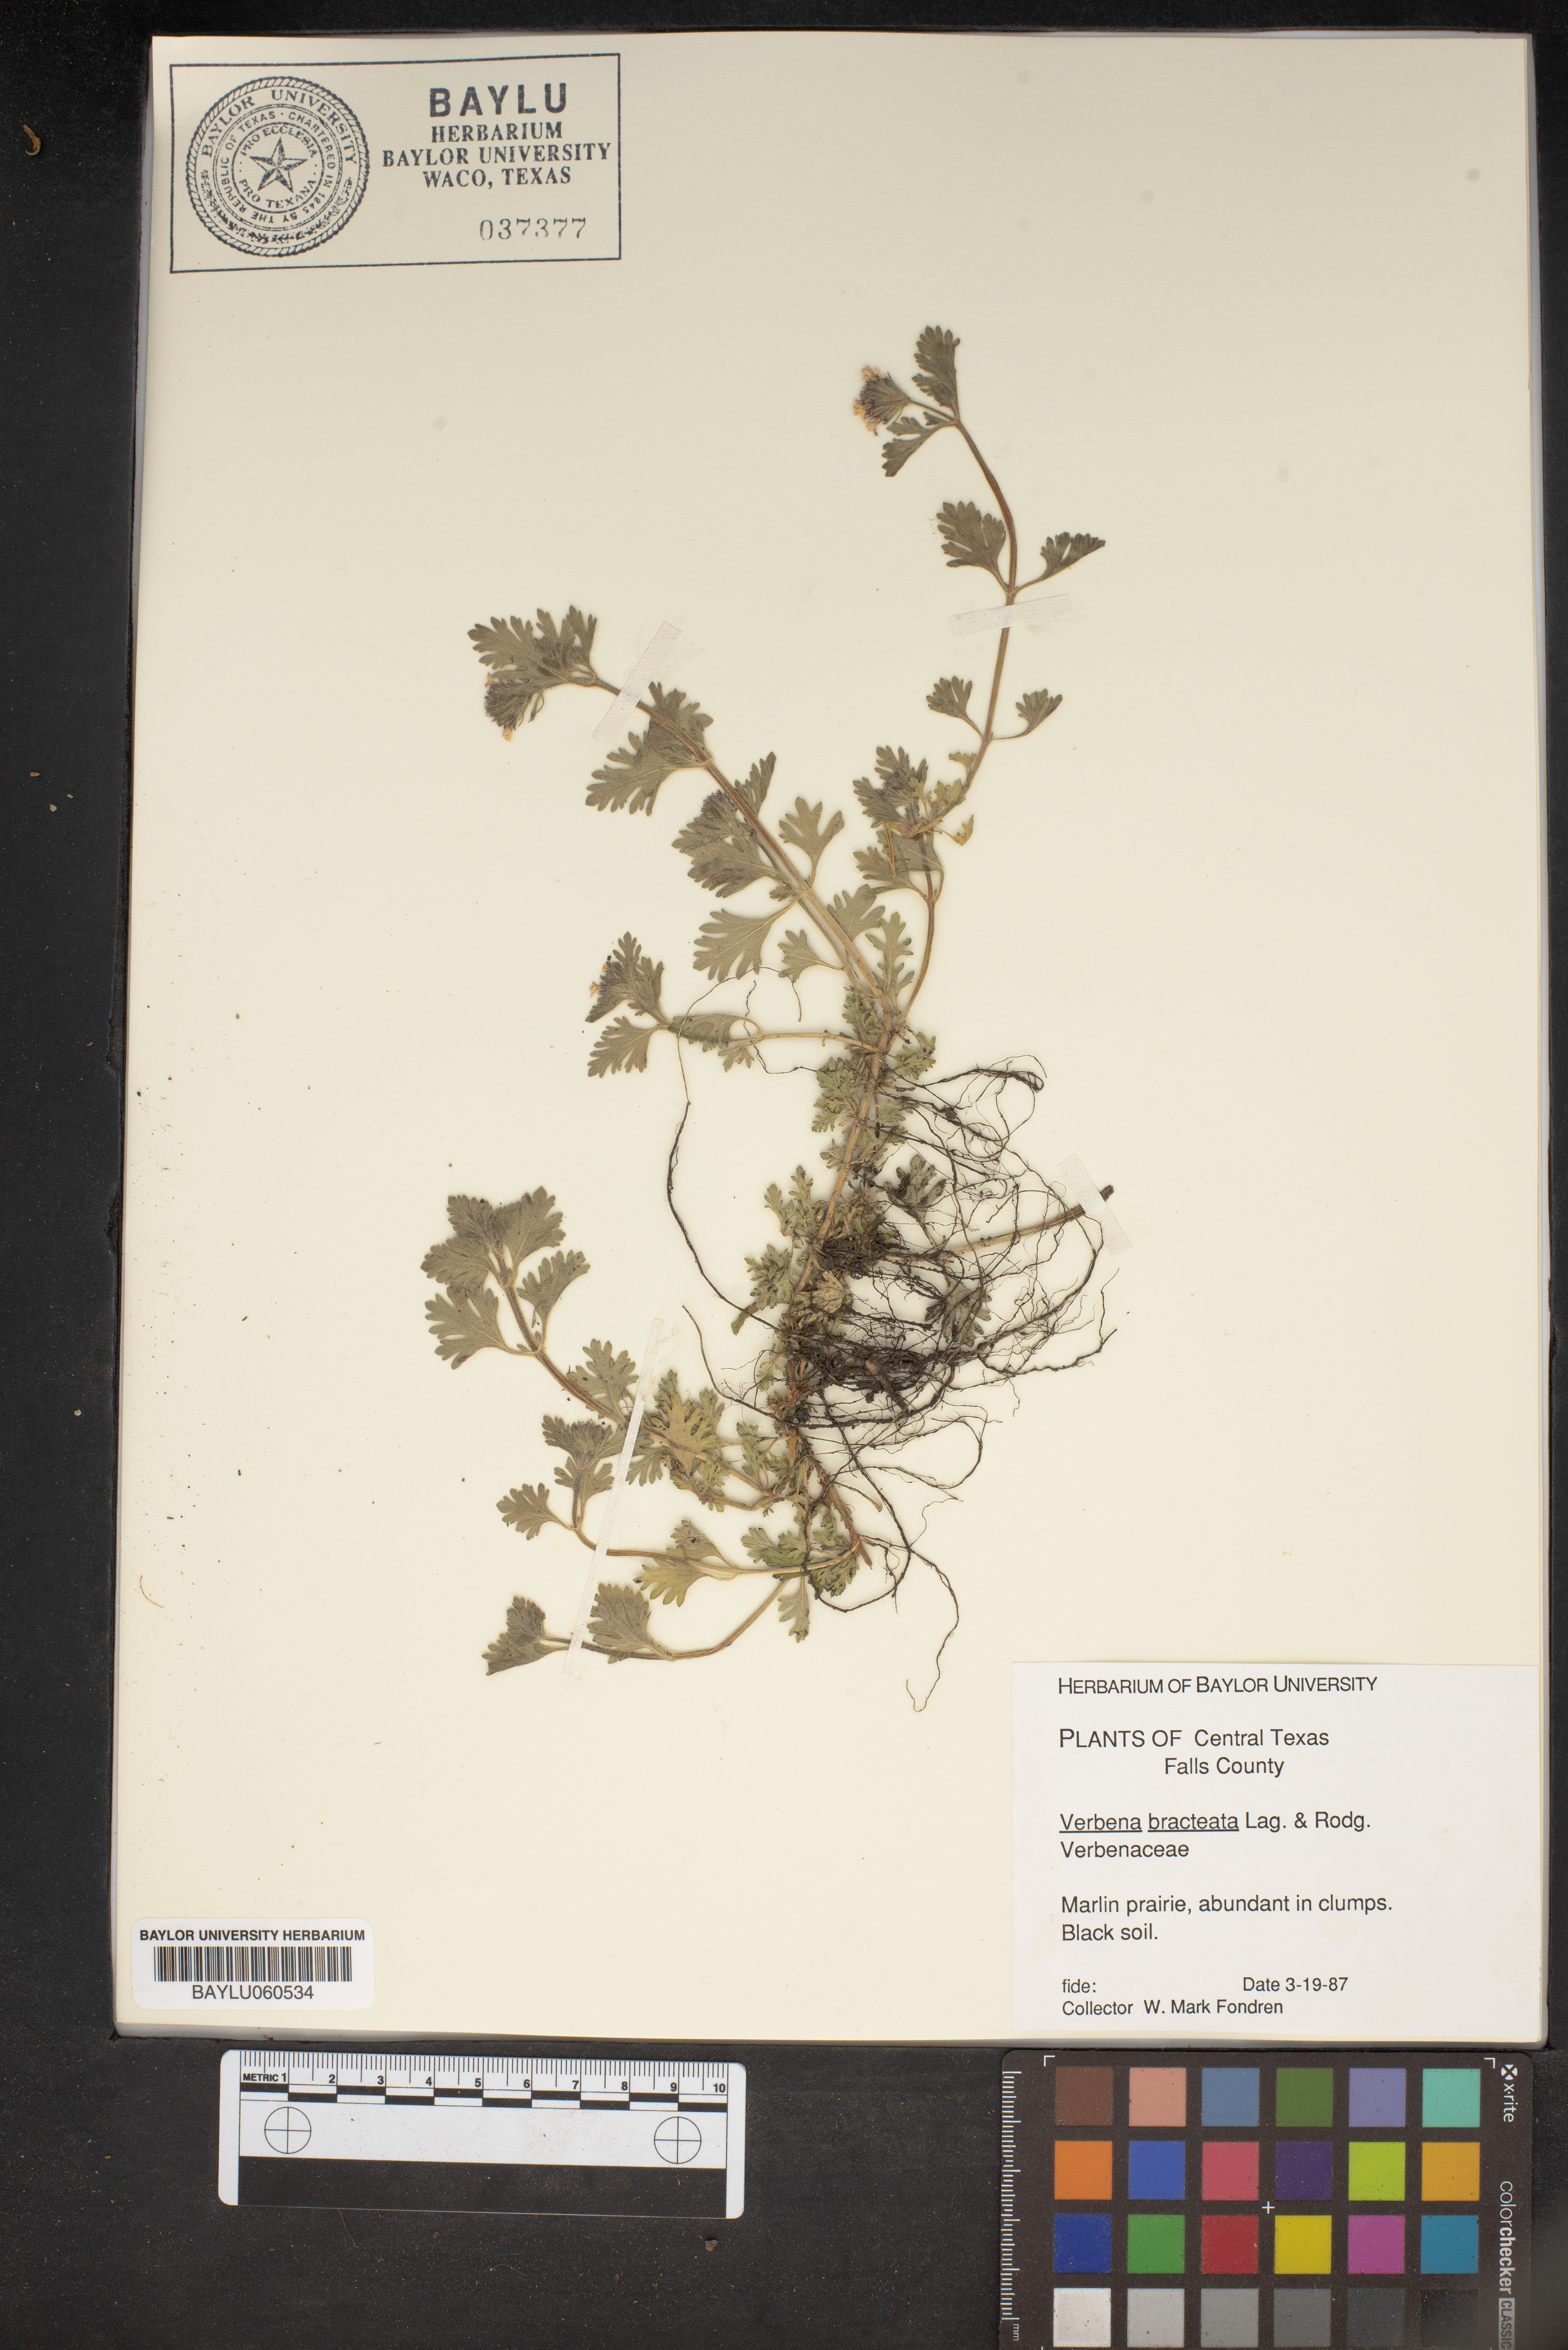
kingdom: Plantae
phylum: Tracheophyta
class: Magnoliopsida
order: Lamiales
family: Verbenaceae
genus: Verbena
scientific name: Verbena bracteata
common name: Bracted vervain
